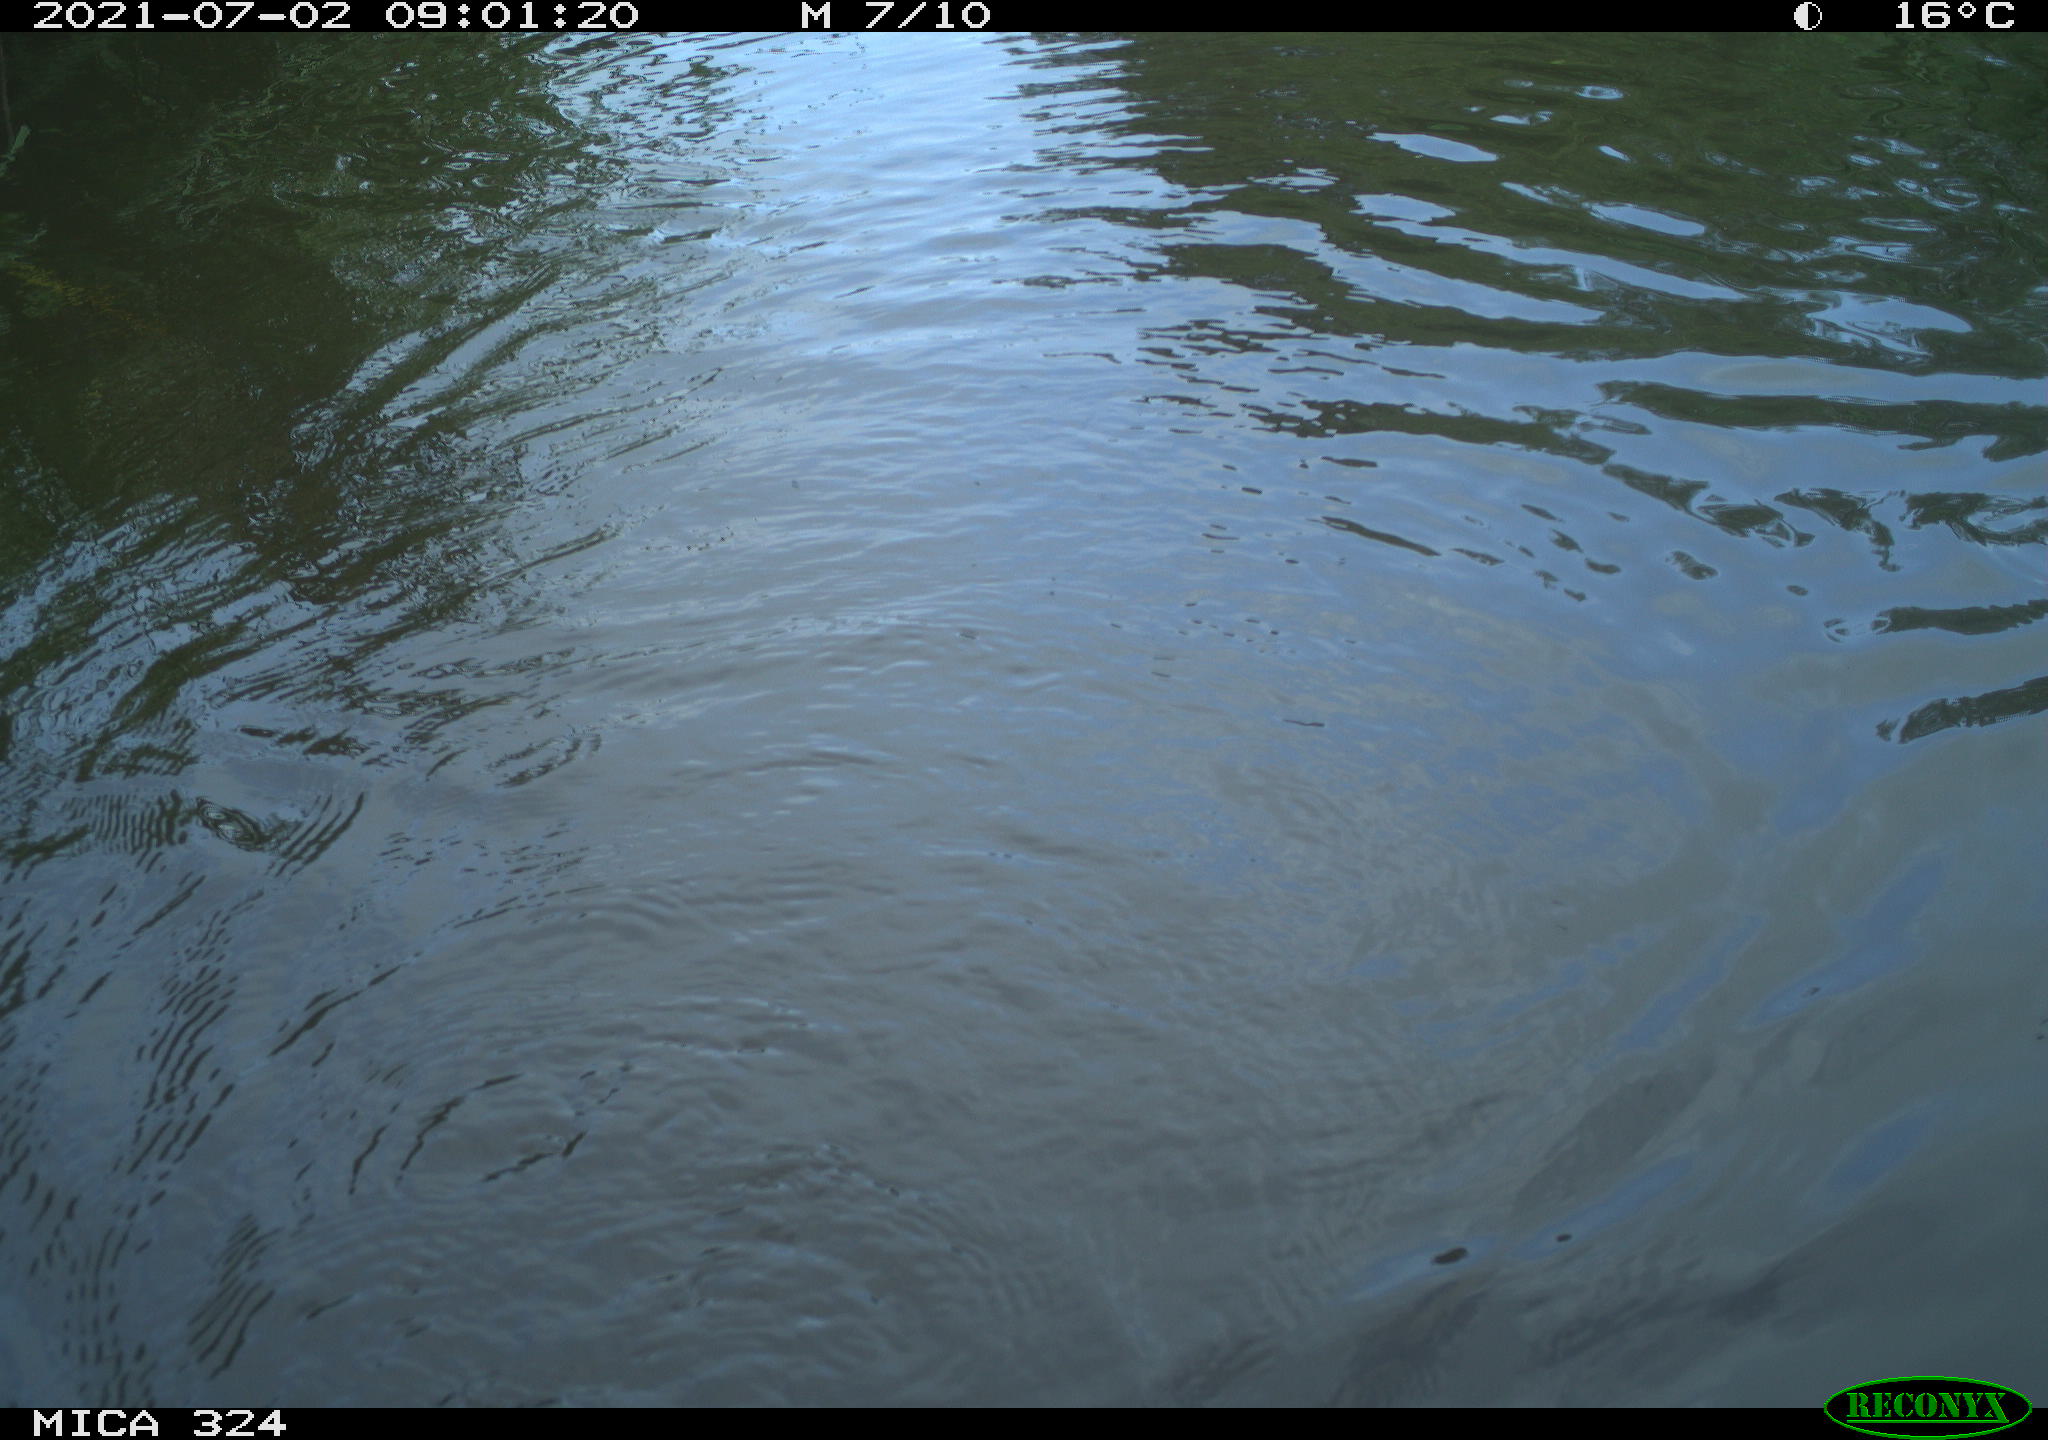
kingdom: Animalia
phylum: Chordata
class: Mammalia
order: Rodentia
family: Cricetidae
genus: Ondatra
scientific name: Ondatra zibethicus
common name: Muskrat
